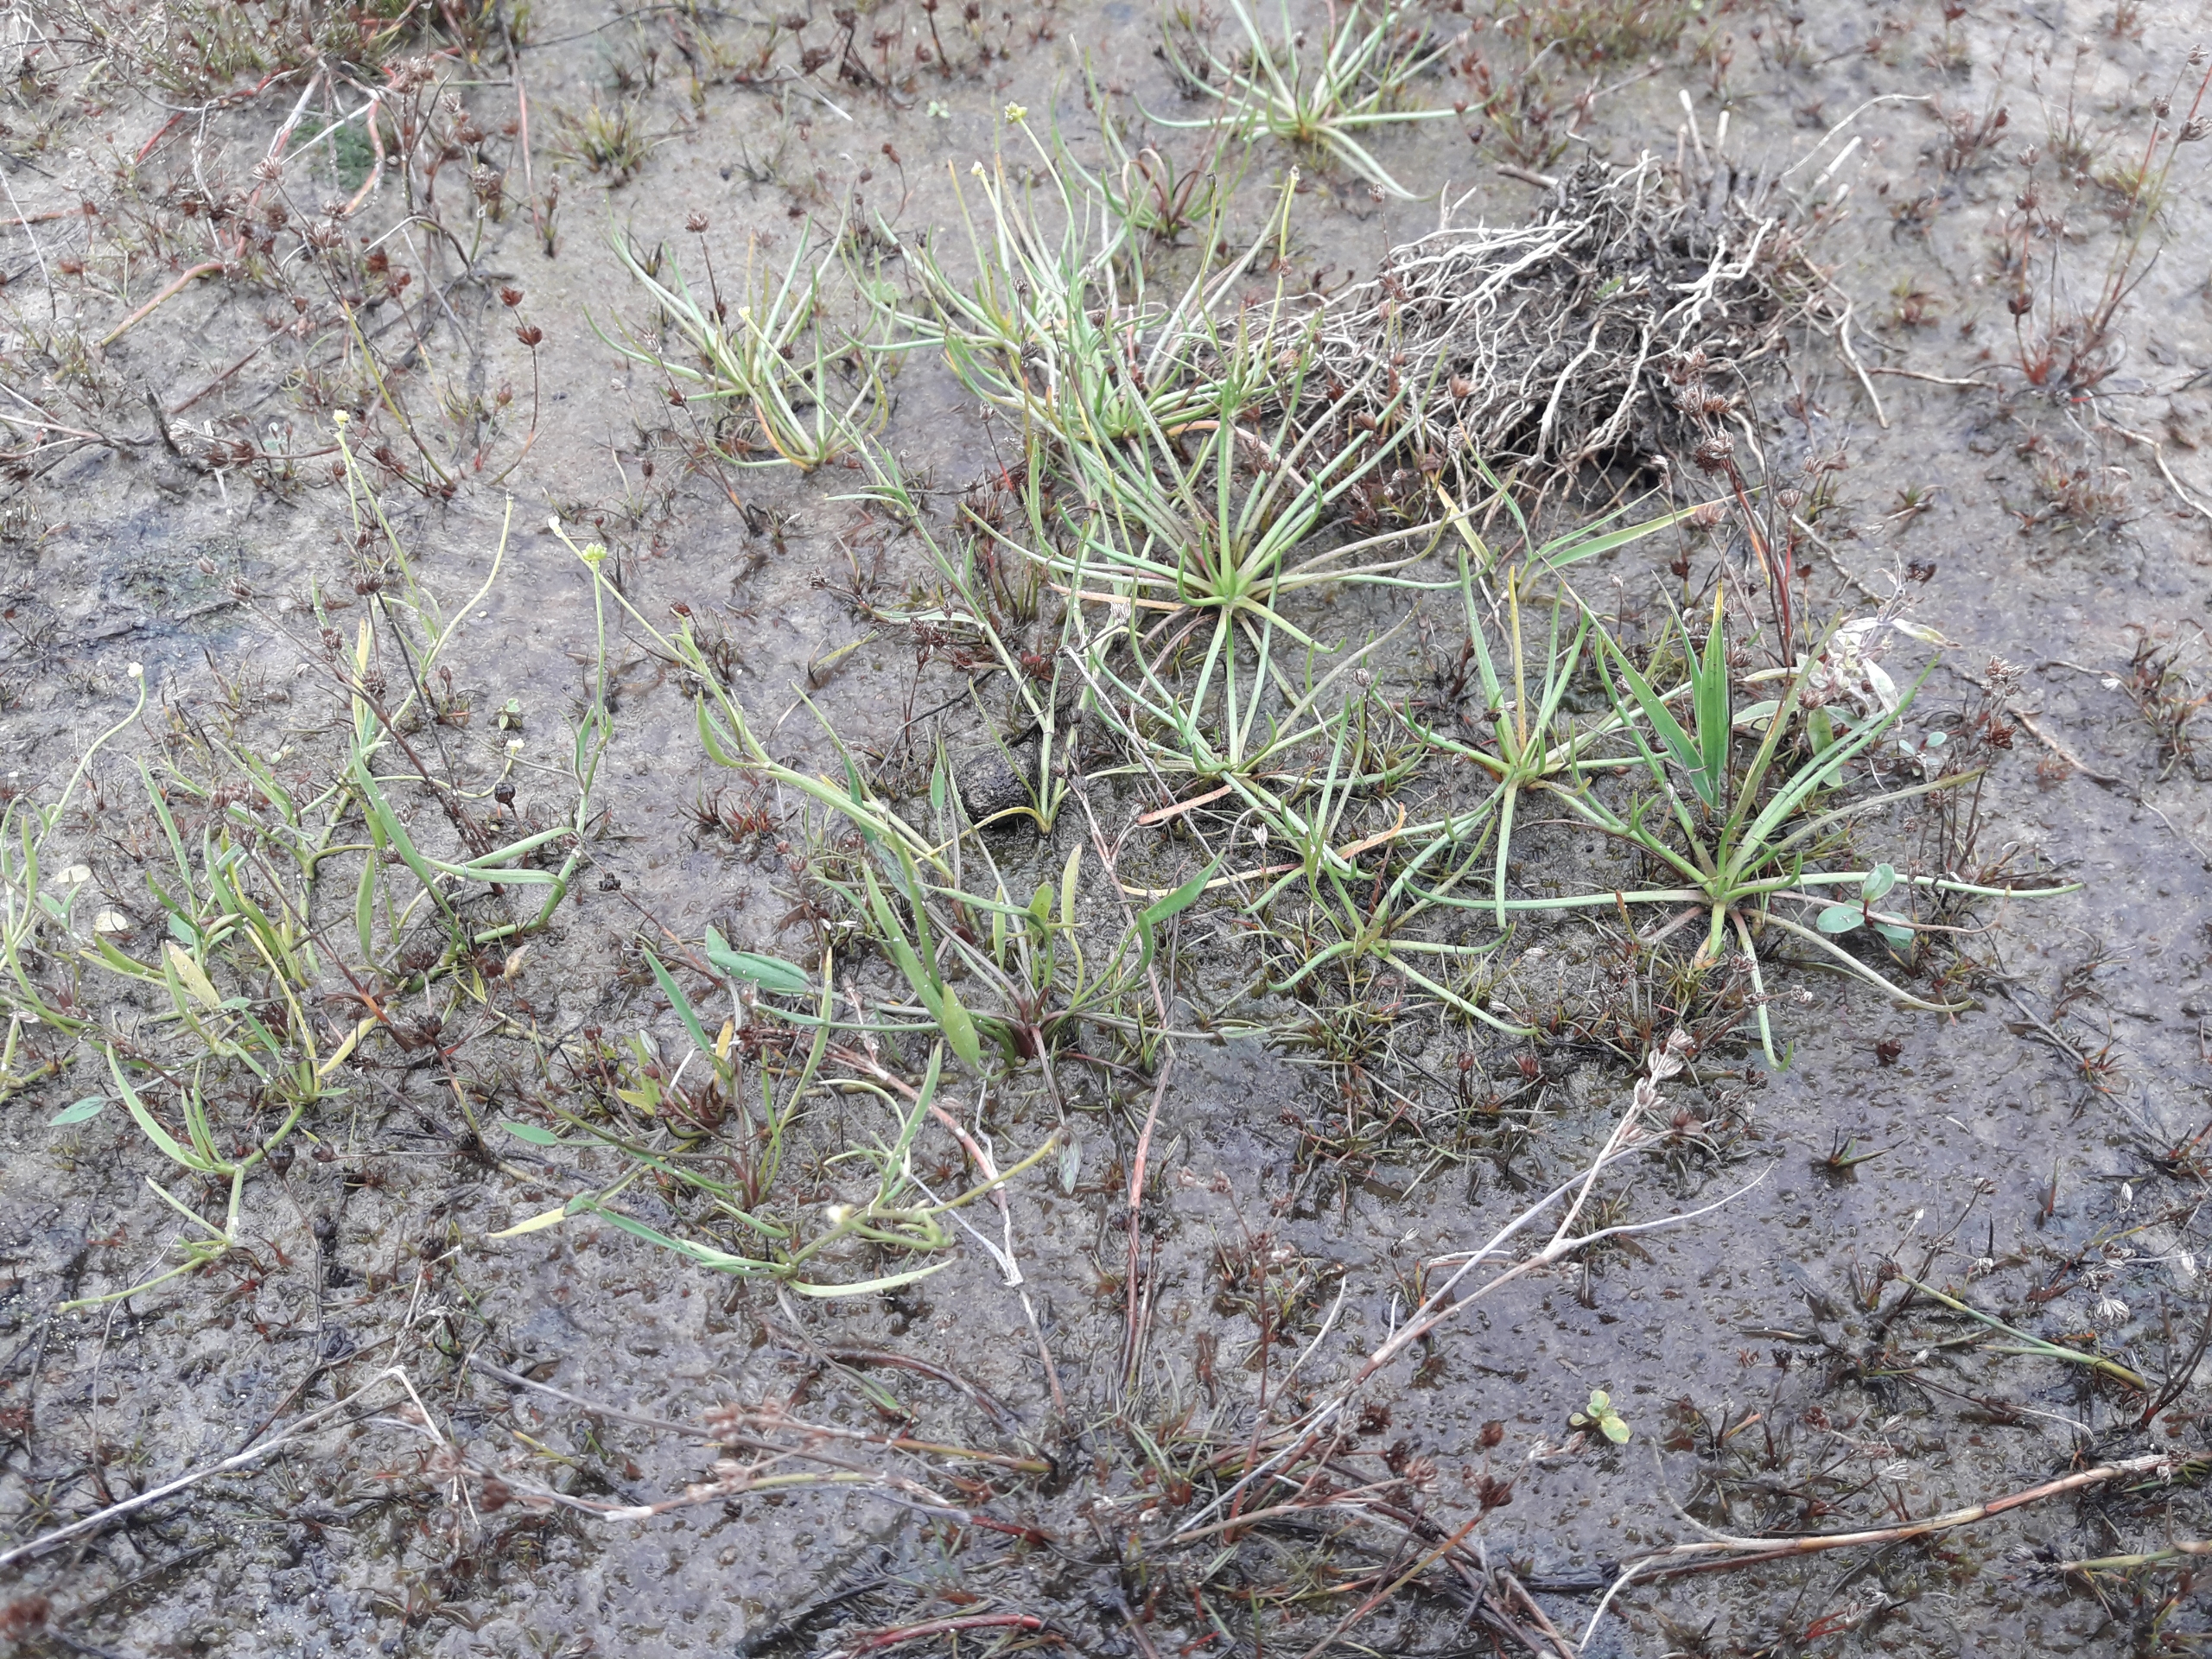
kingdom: Plantae
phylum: Tracheophyta
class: Magnoliopsida
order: Lamiales
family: Plantaginaceae
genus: Littorella
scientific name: Littorella uniflora
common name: Strandbo
